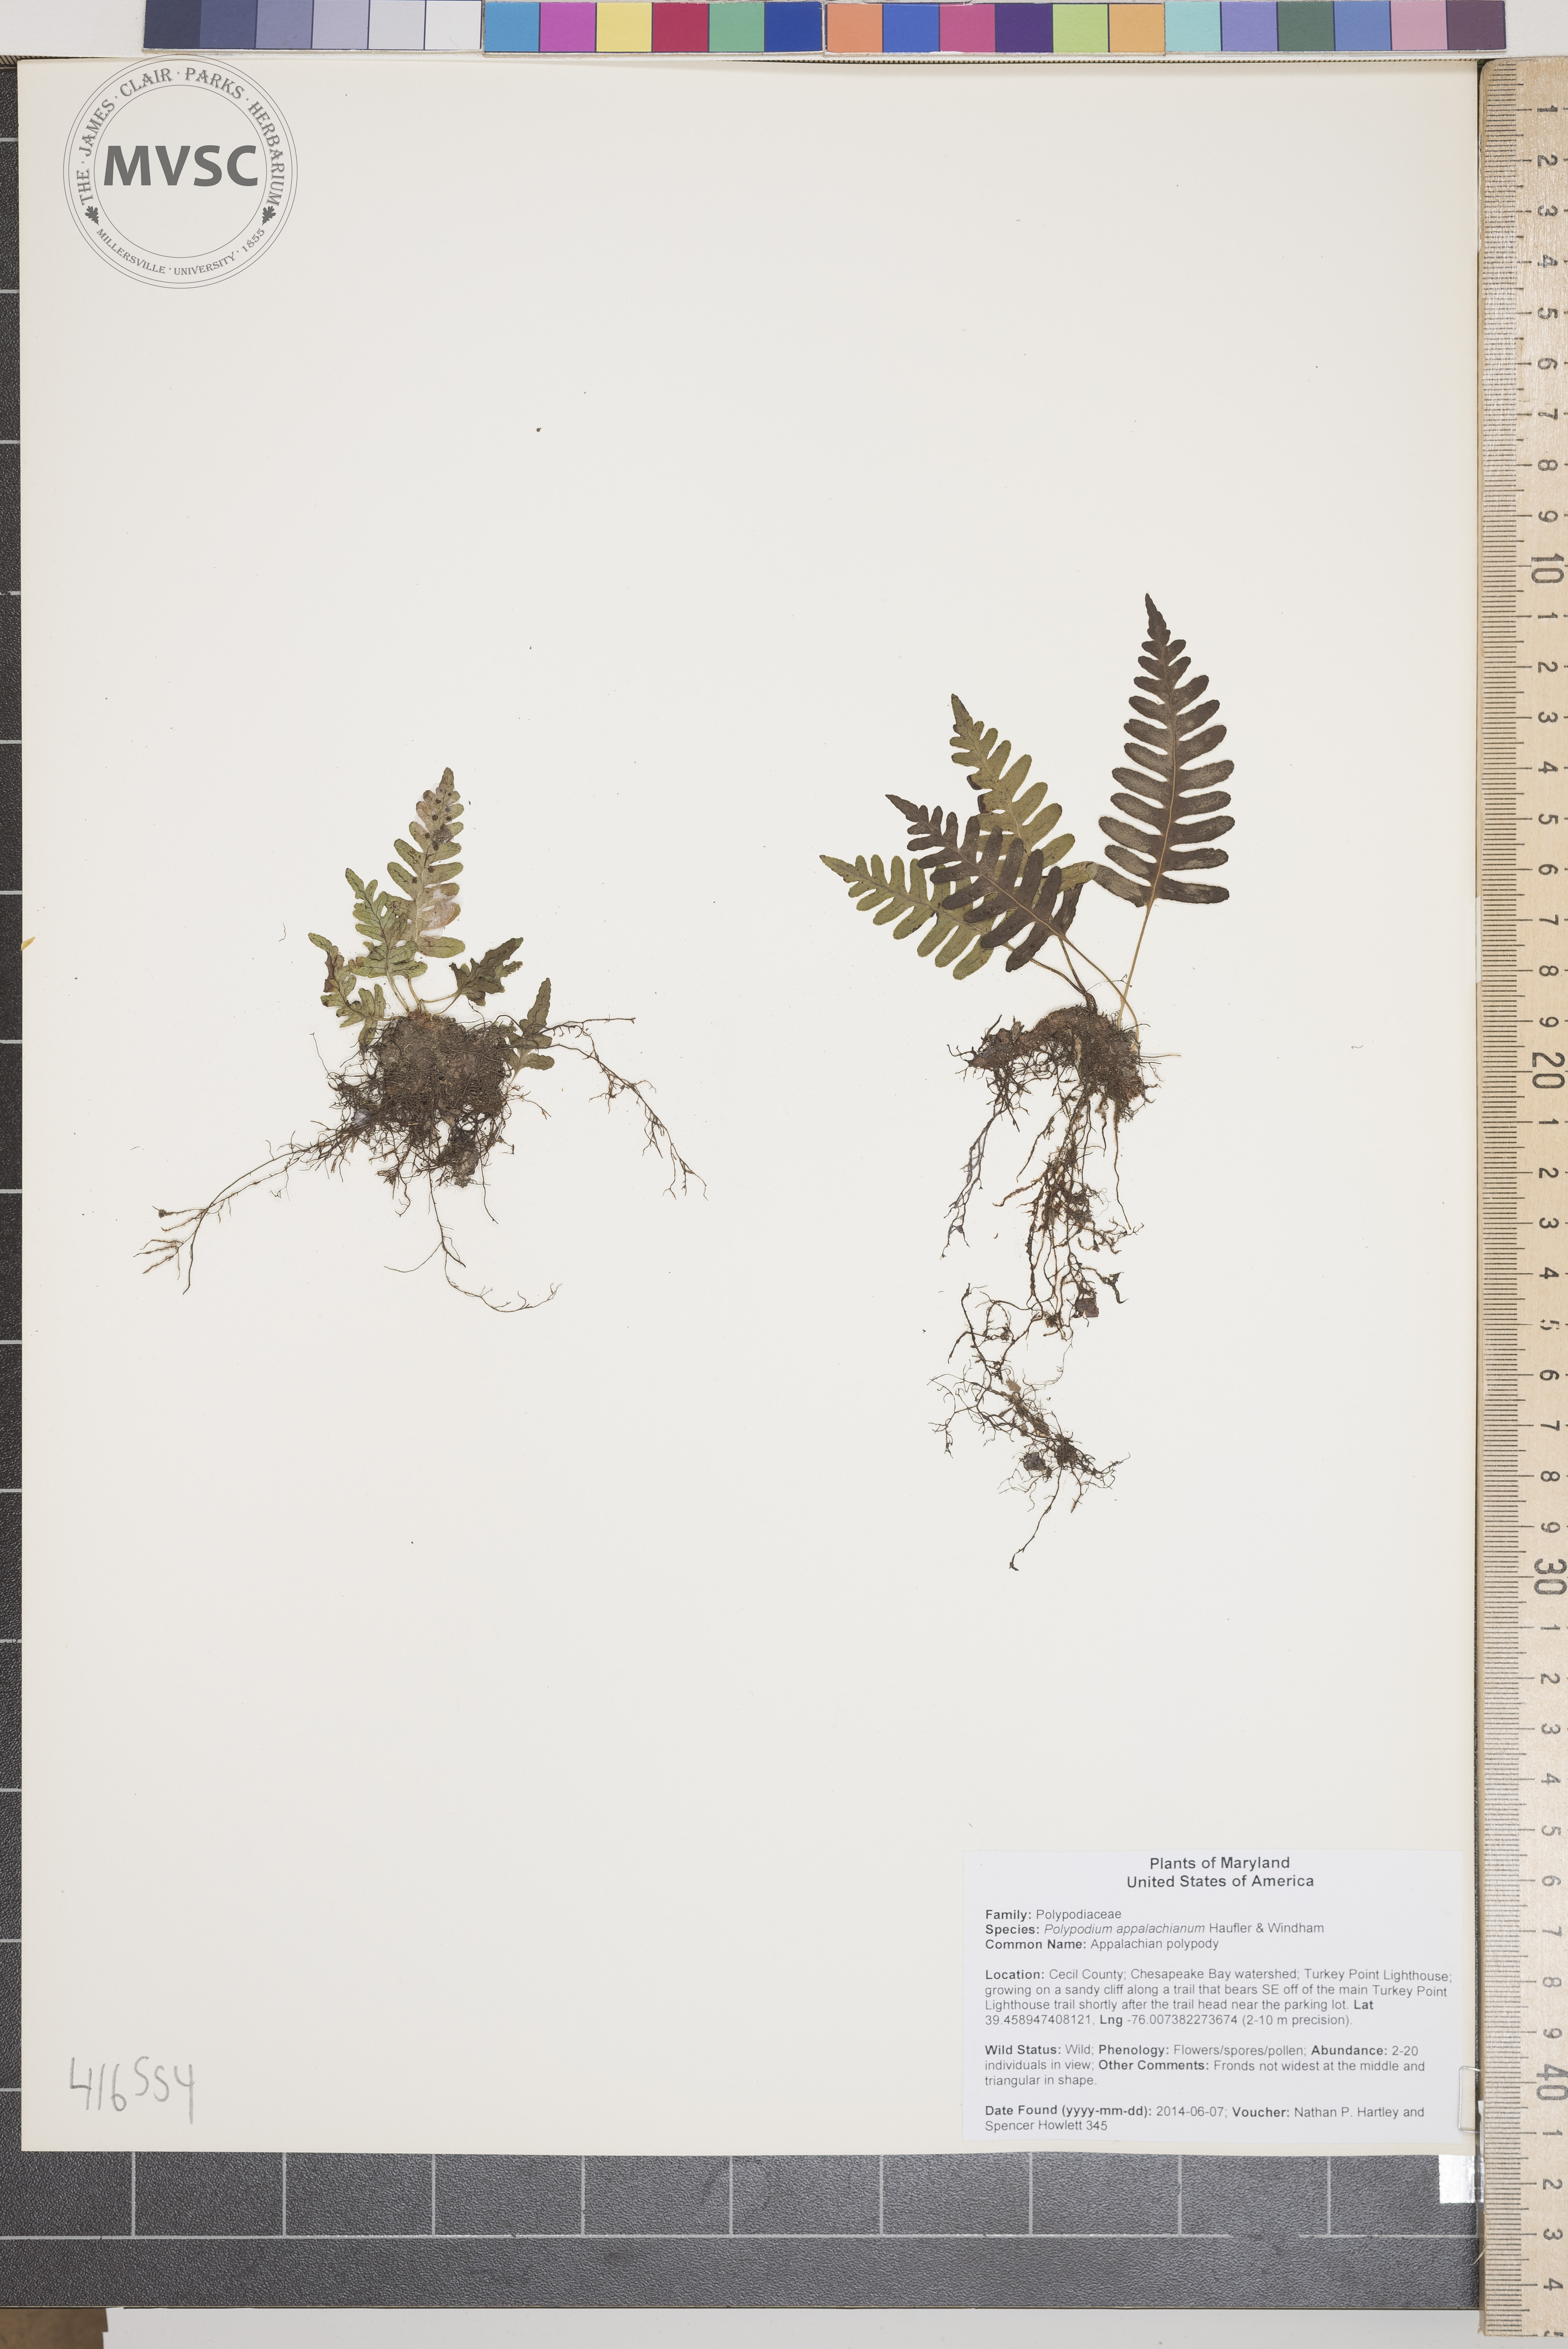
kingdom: Plantae
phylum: Tracheophyta
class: Polypodiopsida
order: Polypodiales
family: Polypodiaceae
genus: Polypodium
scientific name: Polypodium appalachianum
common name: Appalachian polypody
